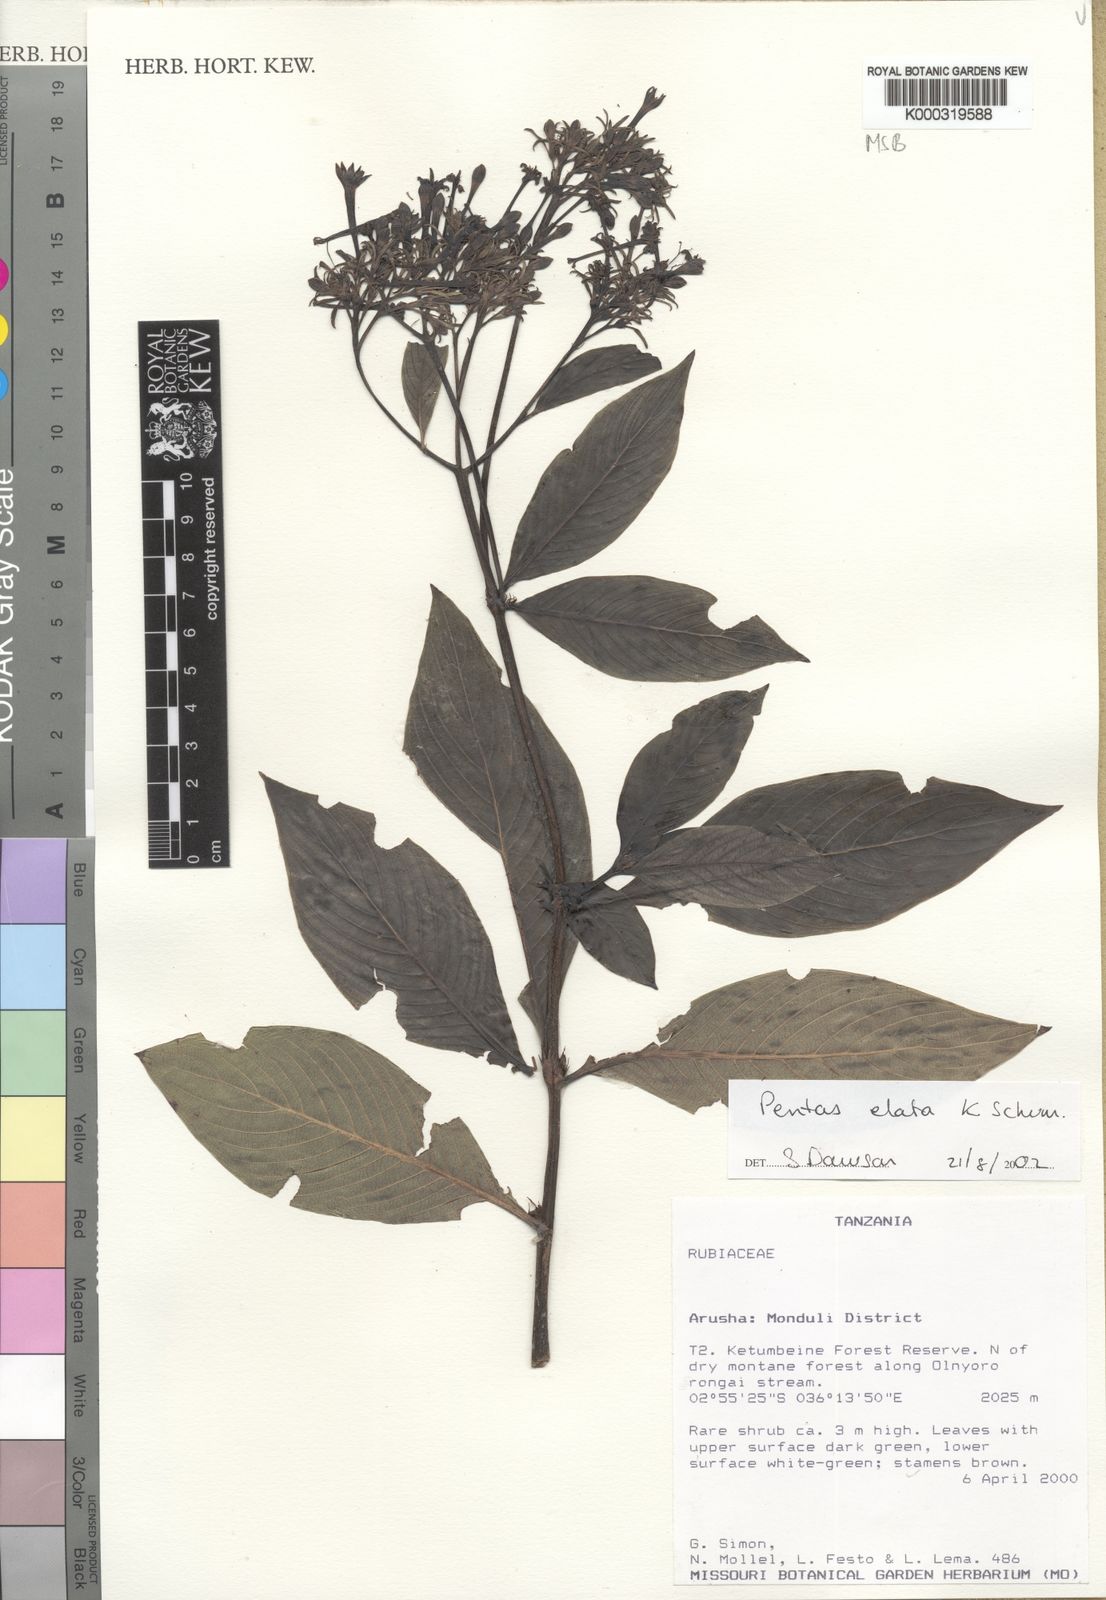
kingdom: Plantae
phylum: Tracheophyta
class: Magnoliopsida
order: Gentianales
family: Rubiaceae
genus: Phyllopentas
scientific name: Phyllopentas elata
